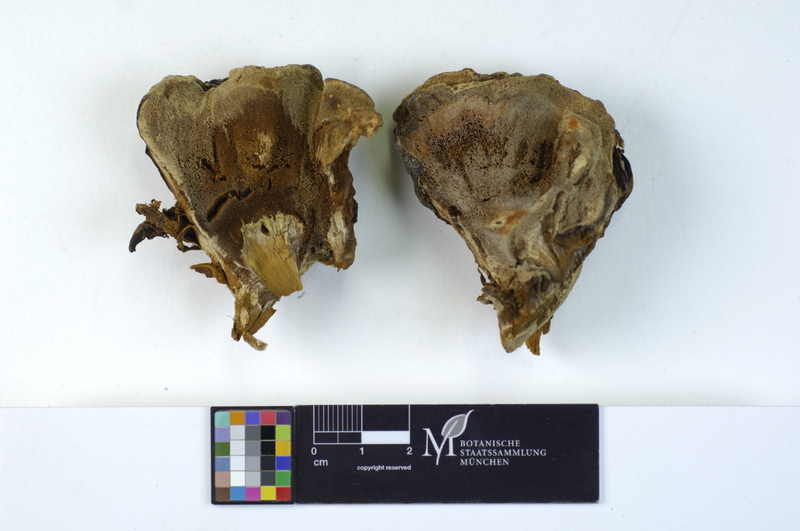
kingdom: Fungi
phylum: Basidiomycota
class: Agaricomycetes
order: Hymenochaetales
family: Hymenochaetaceae
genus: Inonotus
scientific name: Inonotus cuticularis
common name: Clustered bracket
